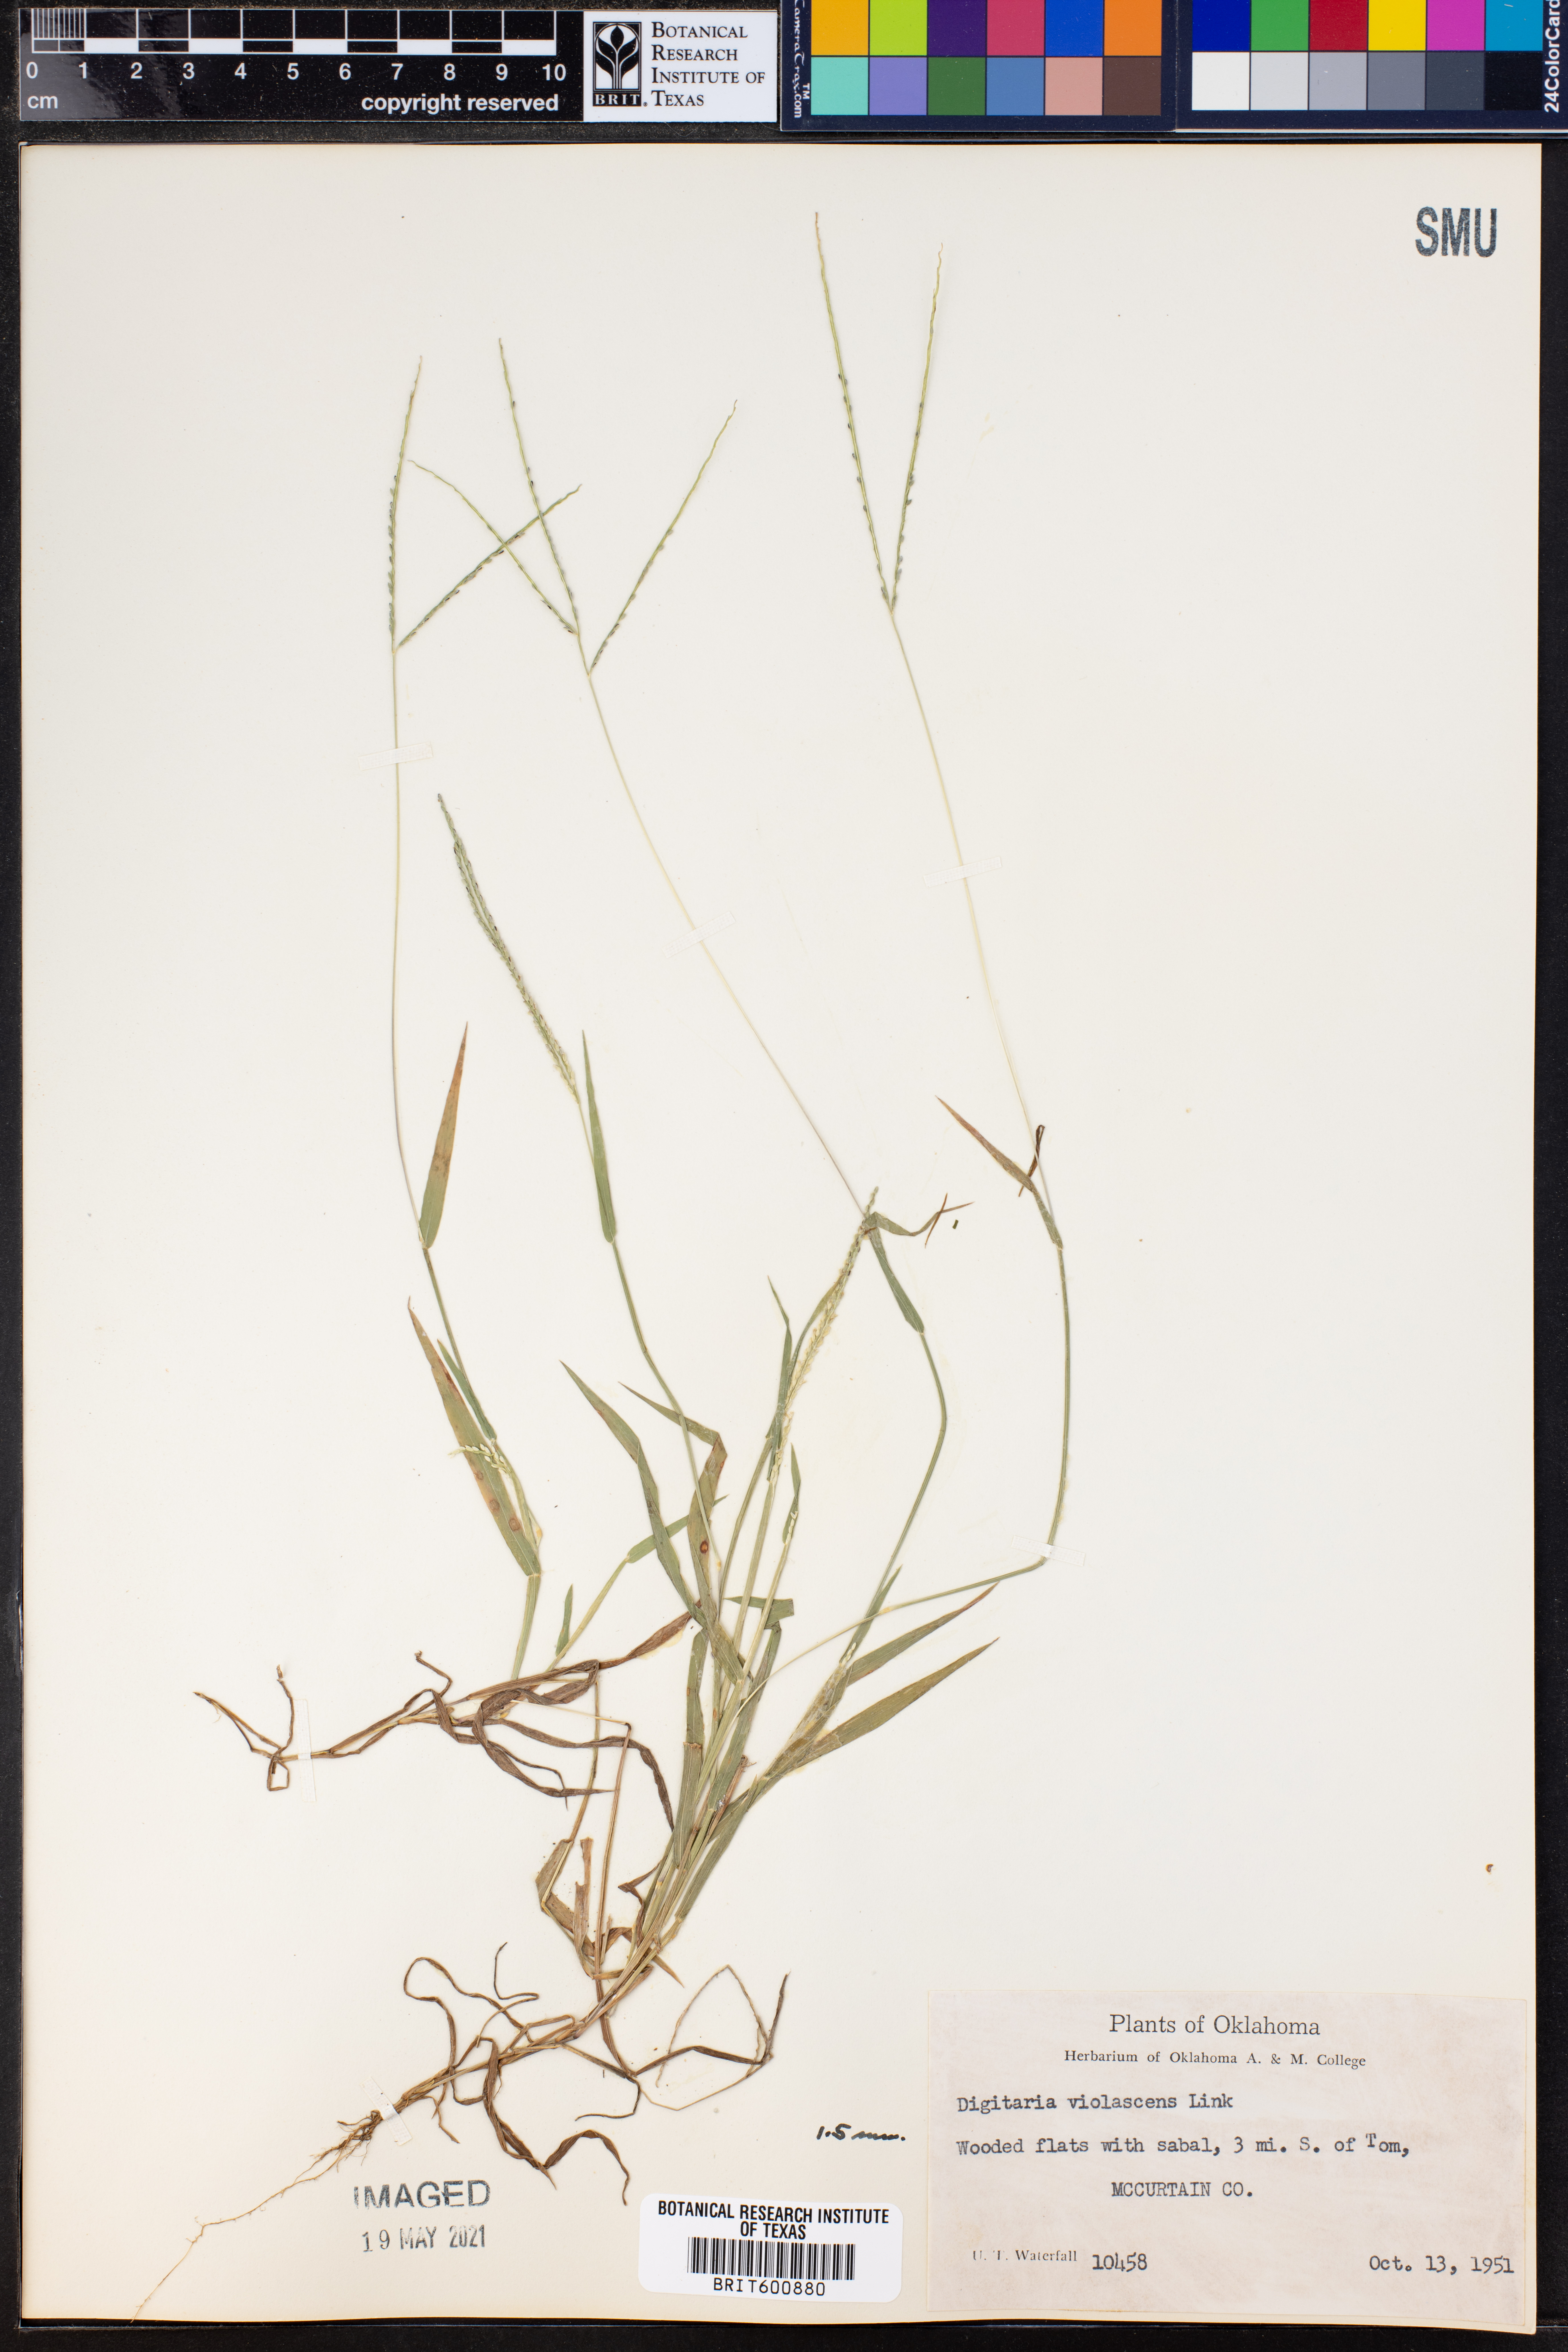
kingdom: Plantae
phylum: Tracheophyta
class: Liliopsida
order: Poales
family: Poaceae
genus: Digitaria
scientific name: Digitaria violascens
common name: Violet crabgrass
